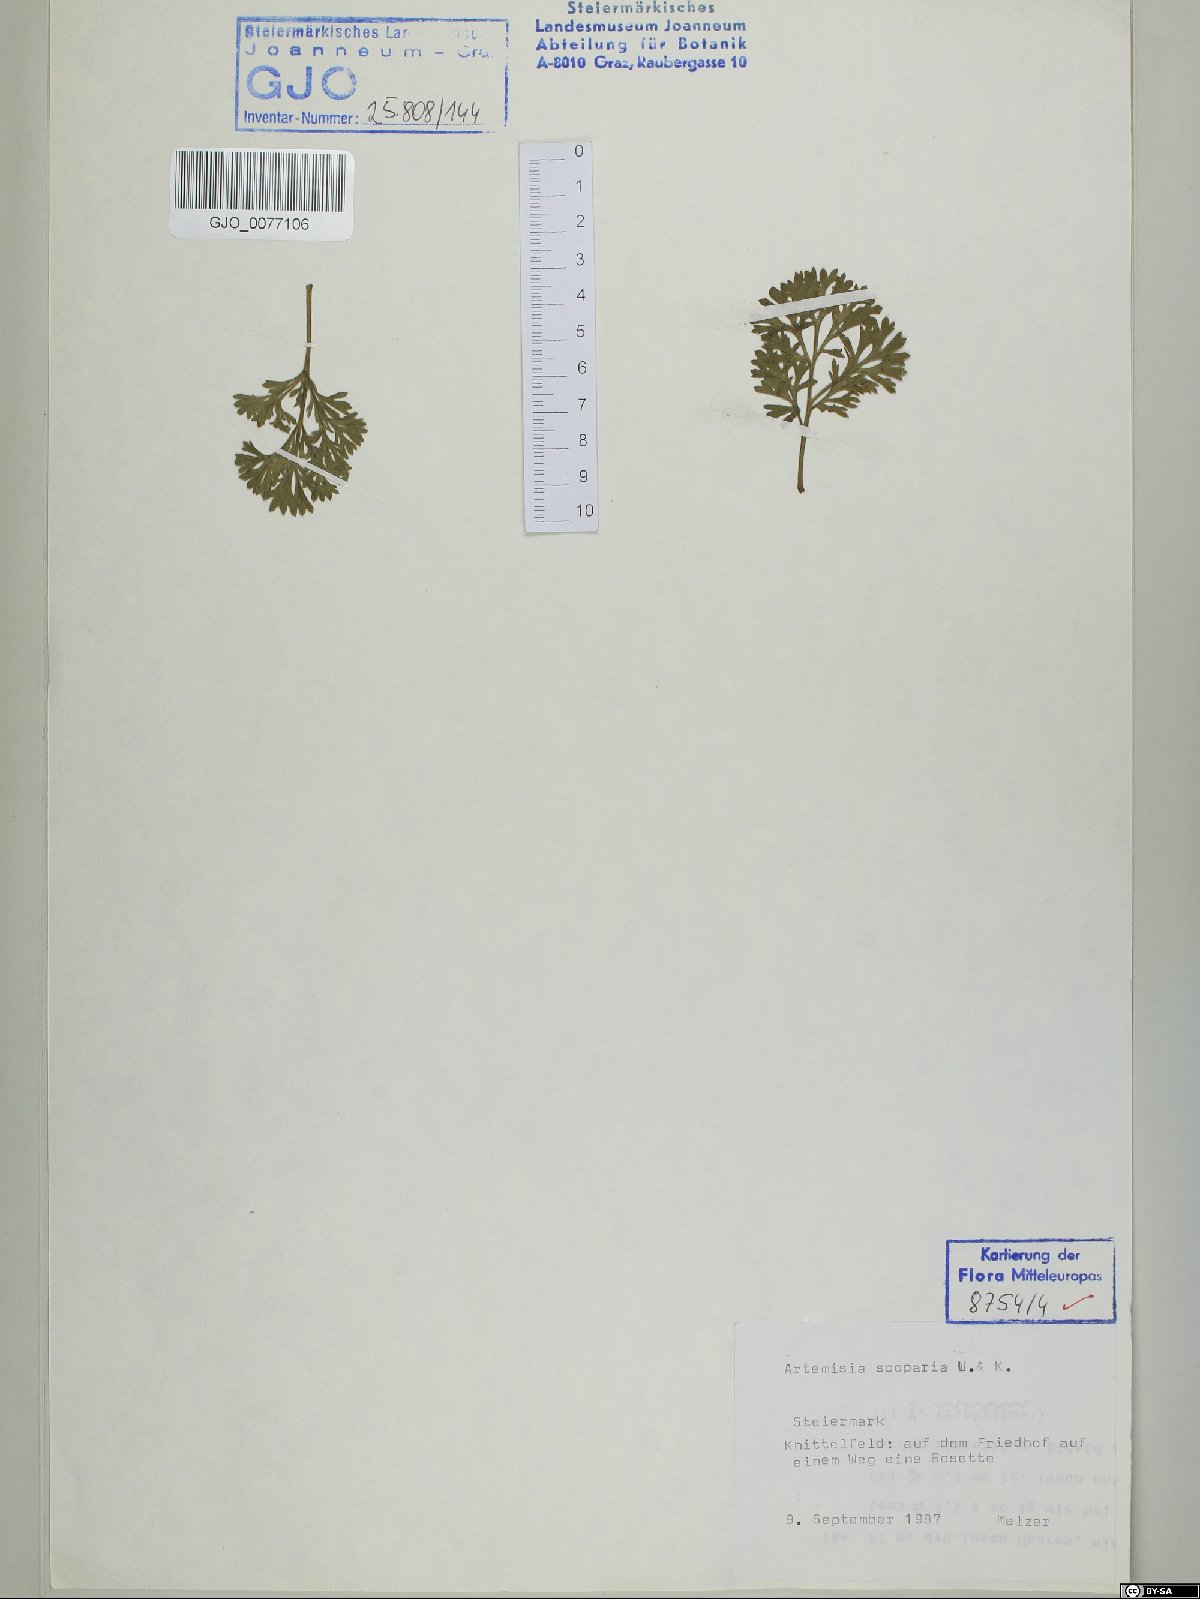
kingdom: Plantae
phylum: Tracheophyta
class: Magnoliopsida
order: Asterales
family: Asteraceae
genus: Artemisia
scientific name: Artemisia scoparia
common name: Redstem wormwood
